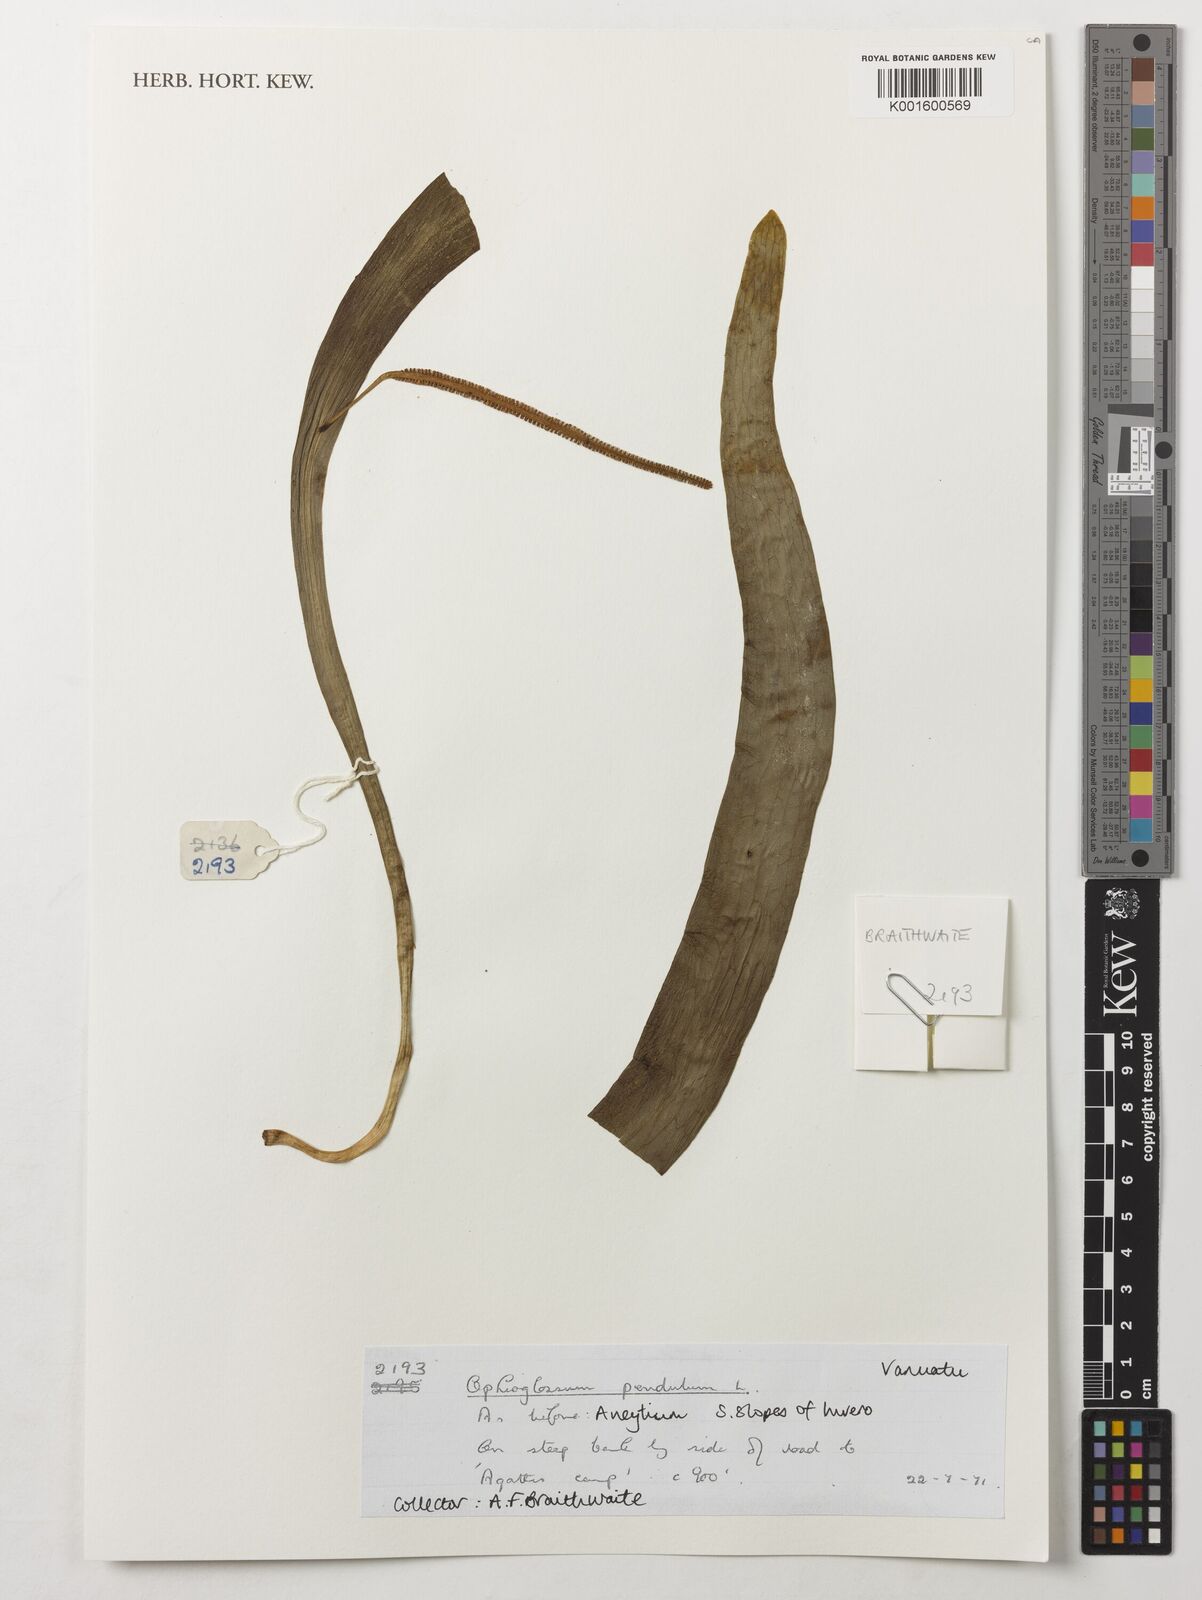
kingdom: Plantae
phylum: Tracheophyta
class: Polypodiopsida
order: Ophioglossales
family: Ophioglossaceae
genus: Ophioderma
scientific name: Ophioderma pendulum
